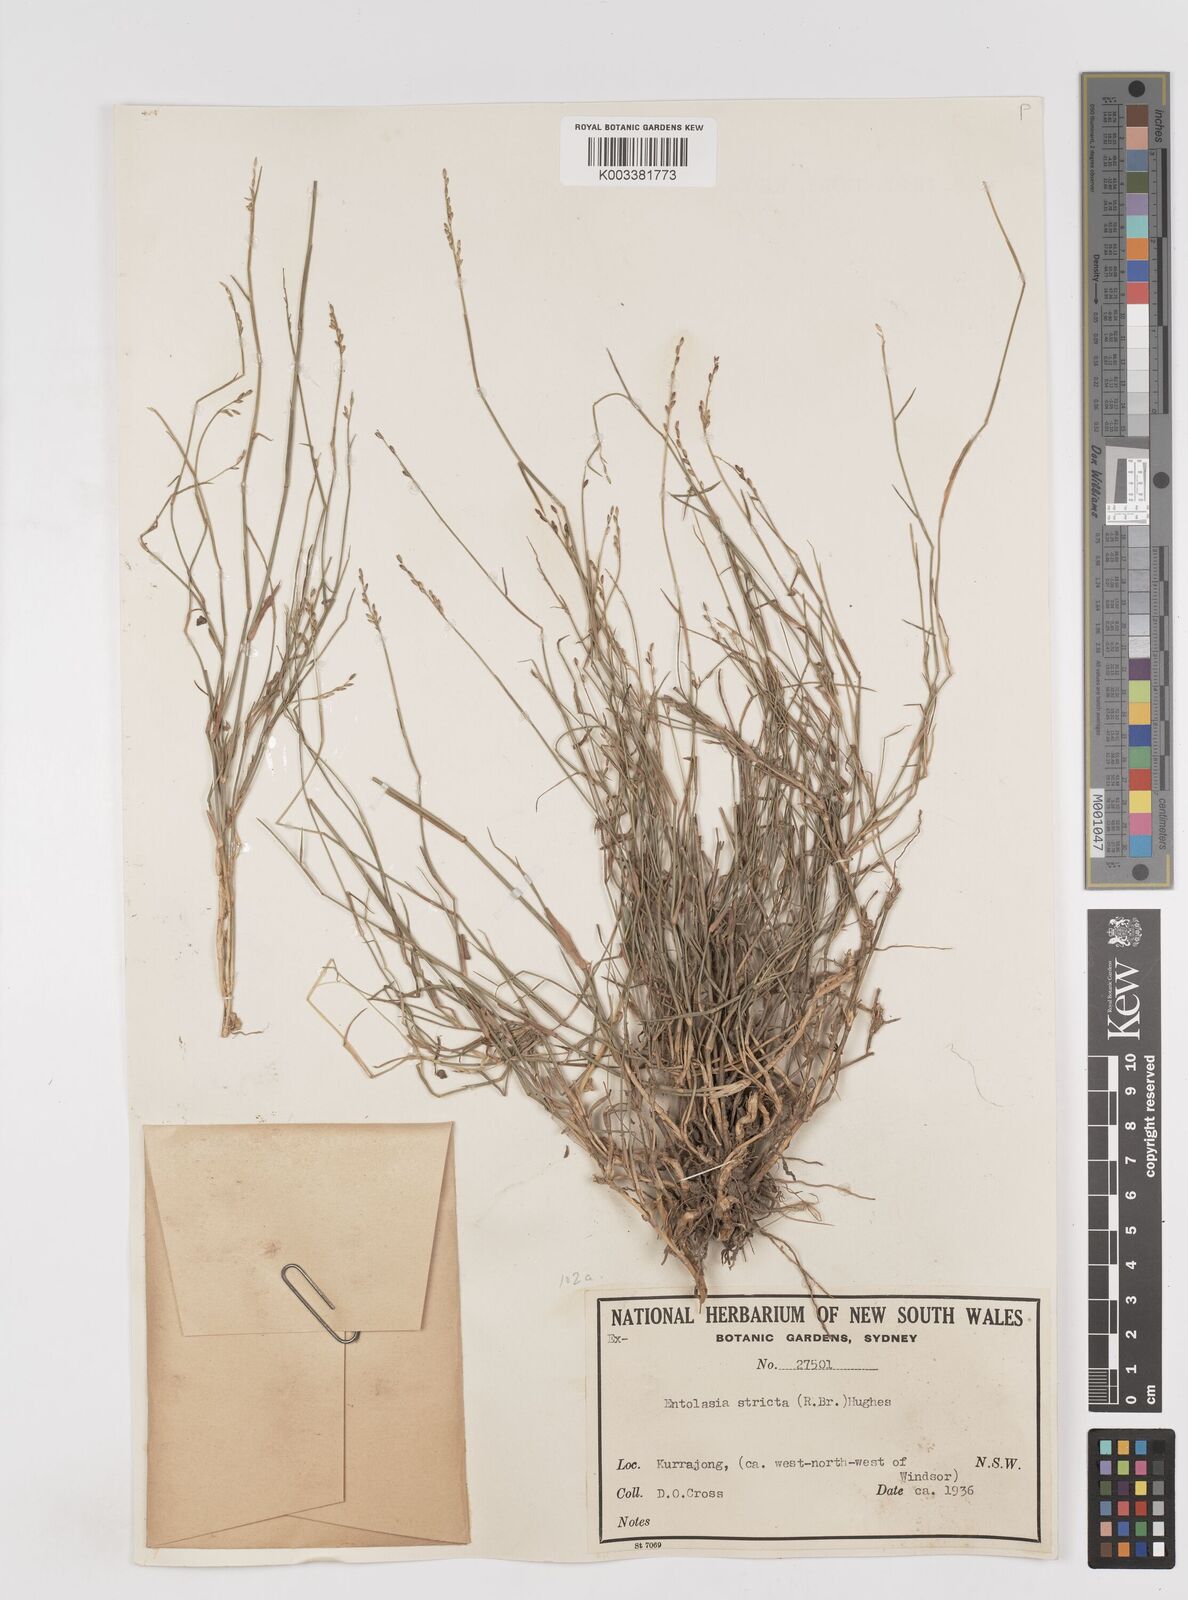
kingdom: Plantae
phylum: Tracheophyta
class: Liliopsida
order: Poales
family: Poaceae
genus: Entolasia
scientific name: Entolasia stricta
